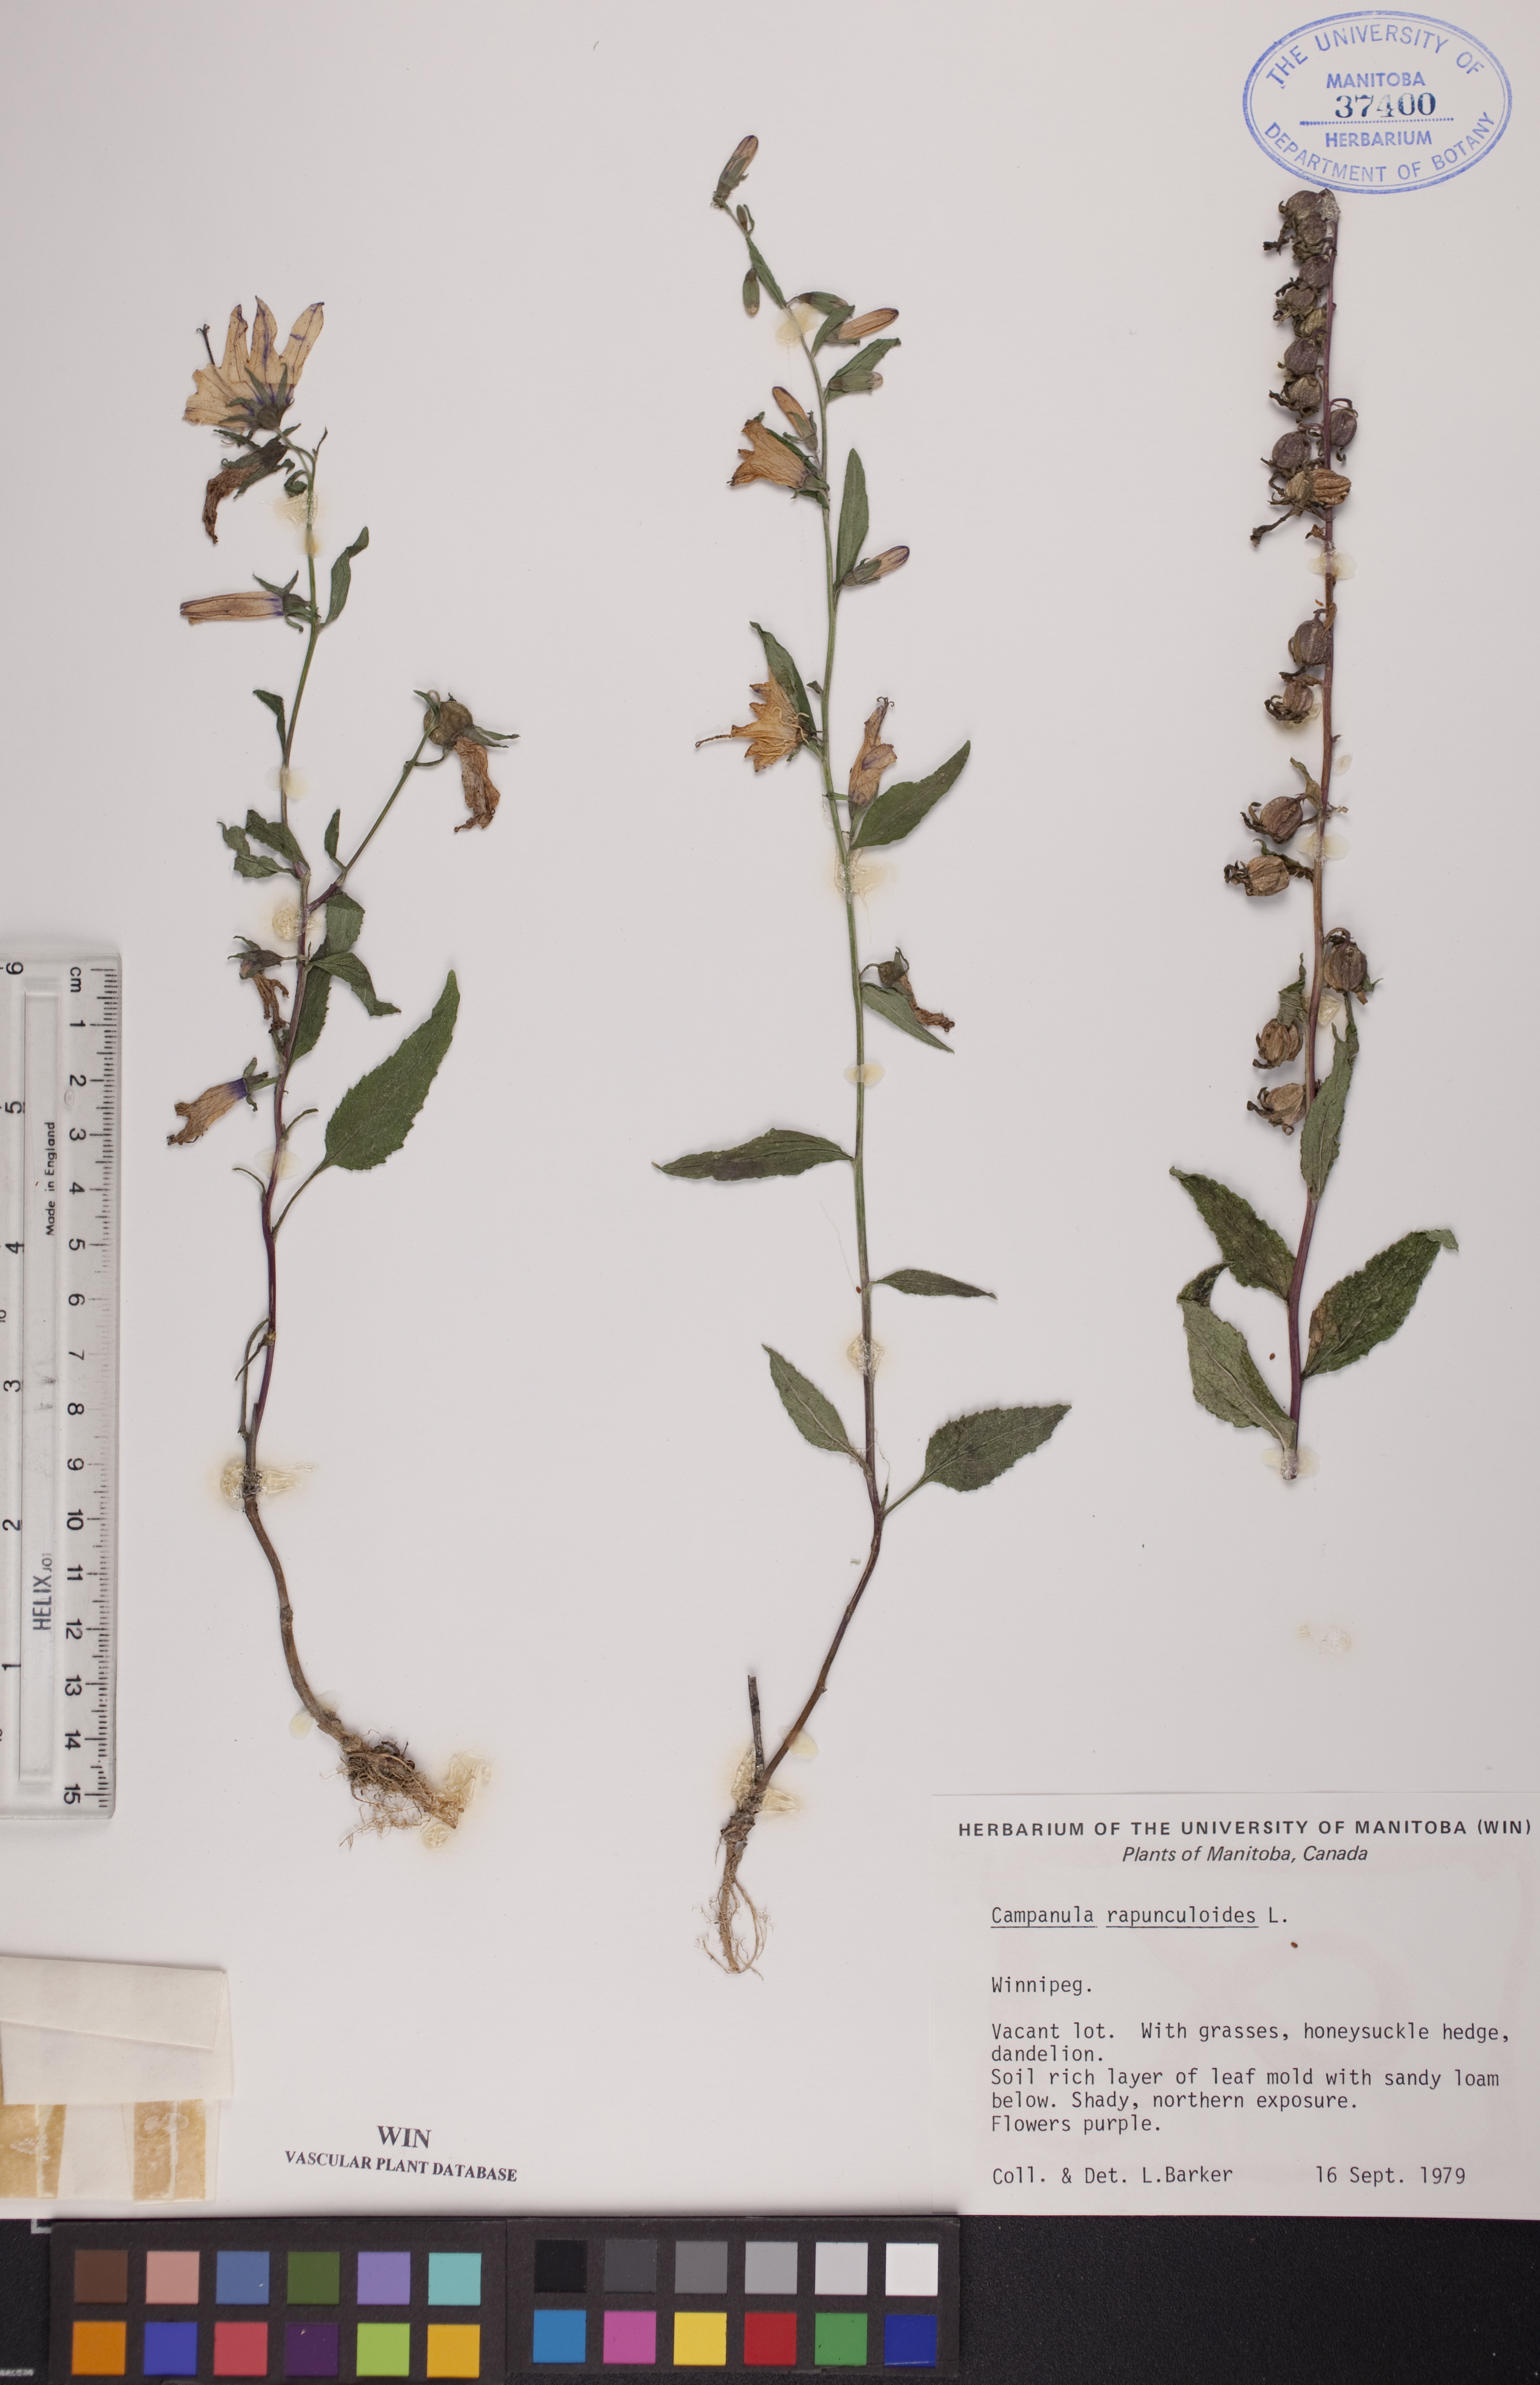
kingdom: Plantae
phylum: Tracheophyta
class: Magnoliopsida
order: Asterales
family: Campanulaceae
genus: Campanula
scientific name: Campanula rapunculoides
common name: Creeping bellflower
